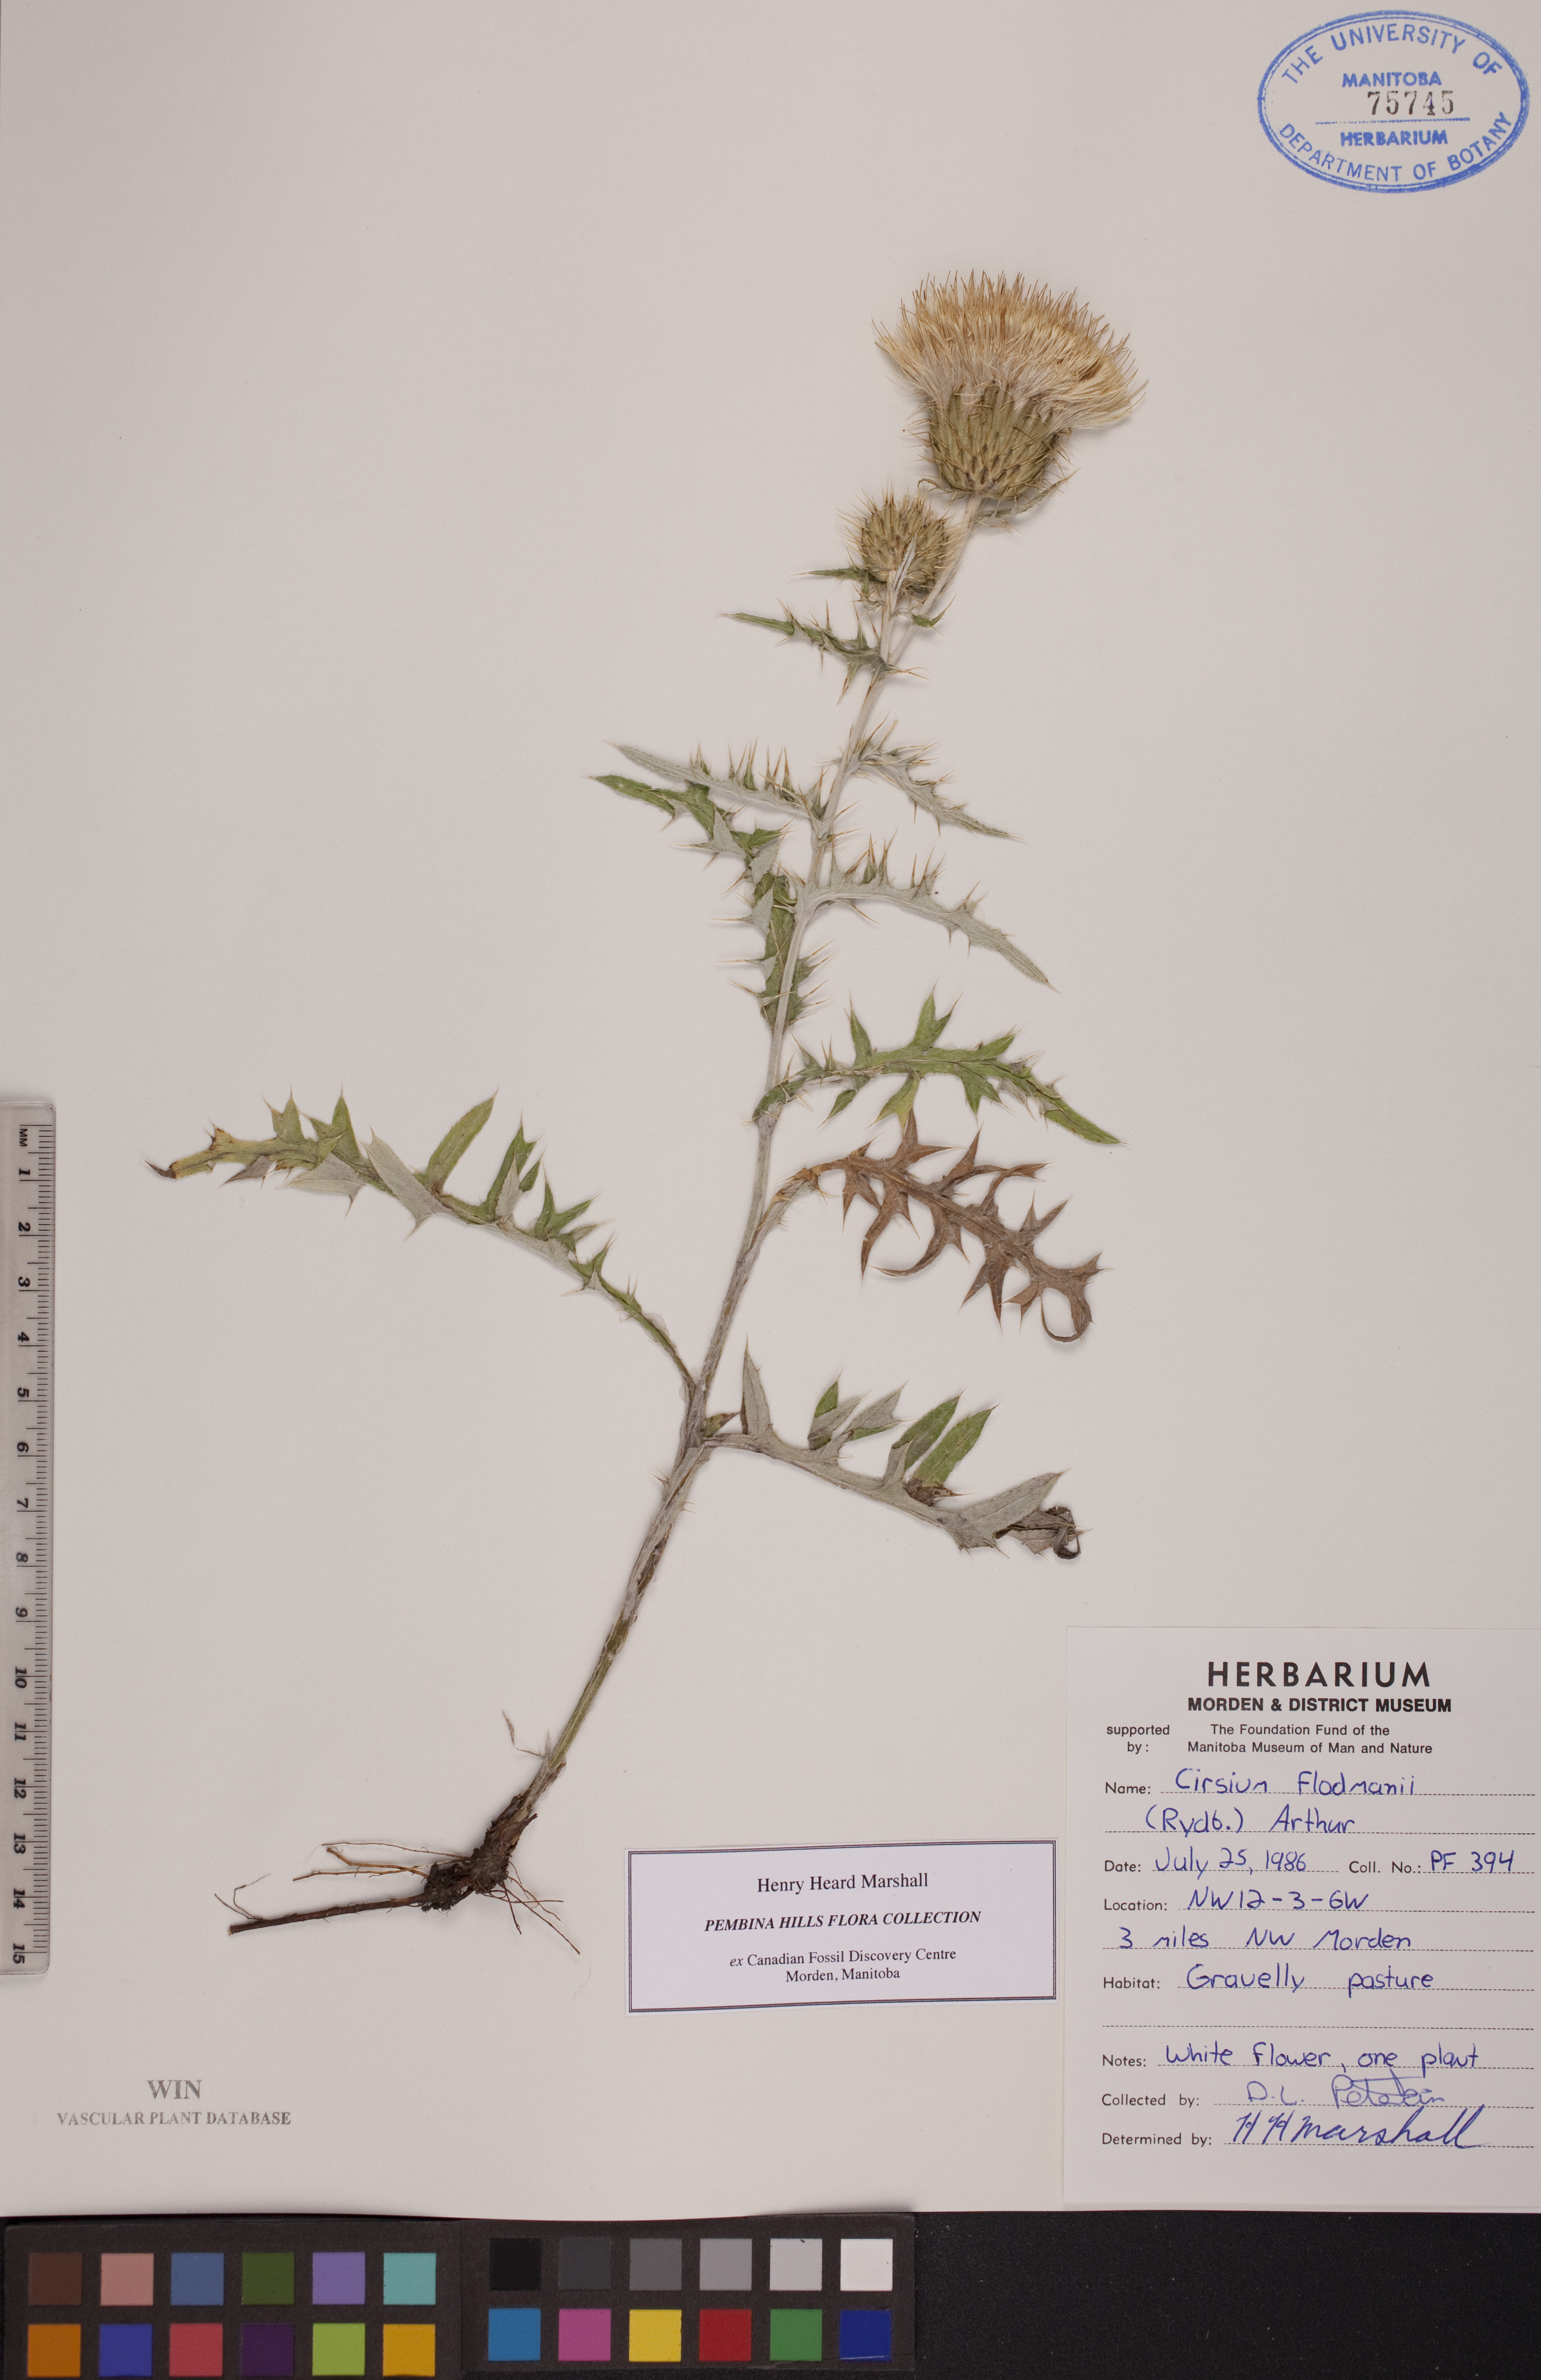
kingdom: Plantae
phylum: Tracheophyta
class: Magnoliopsida
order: Asterales
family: Asteraceae
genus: Cirsium
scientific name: Cirsium flodmanii
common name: Flodman's thistle
